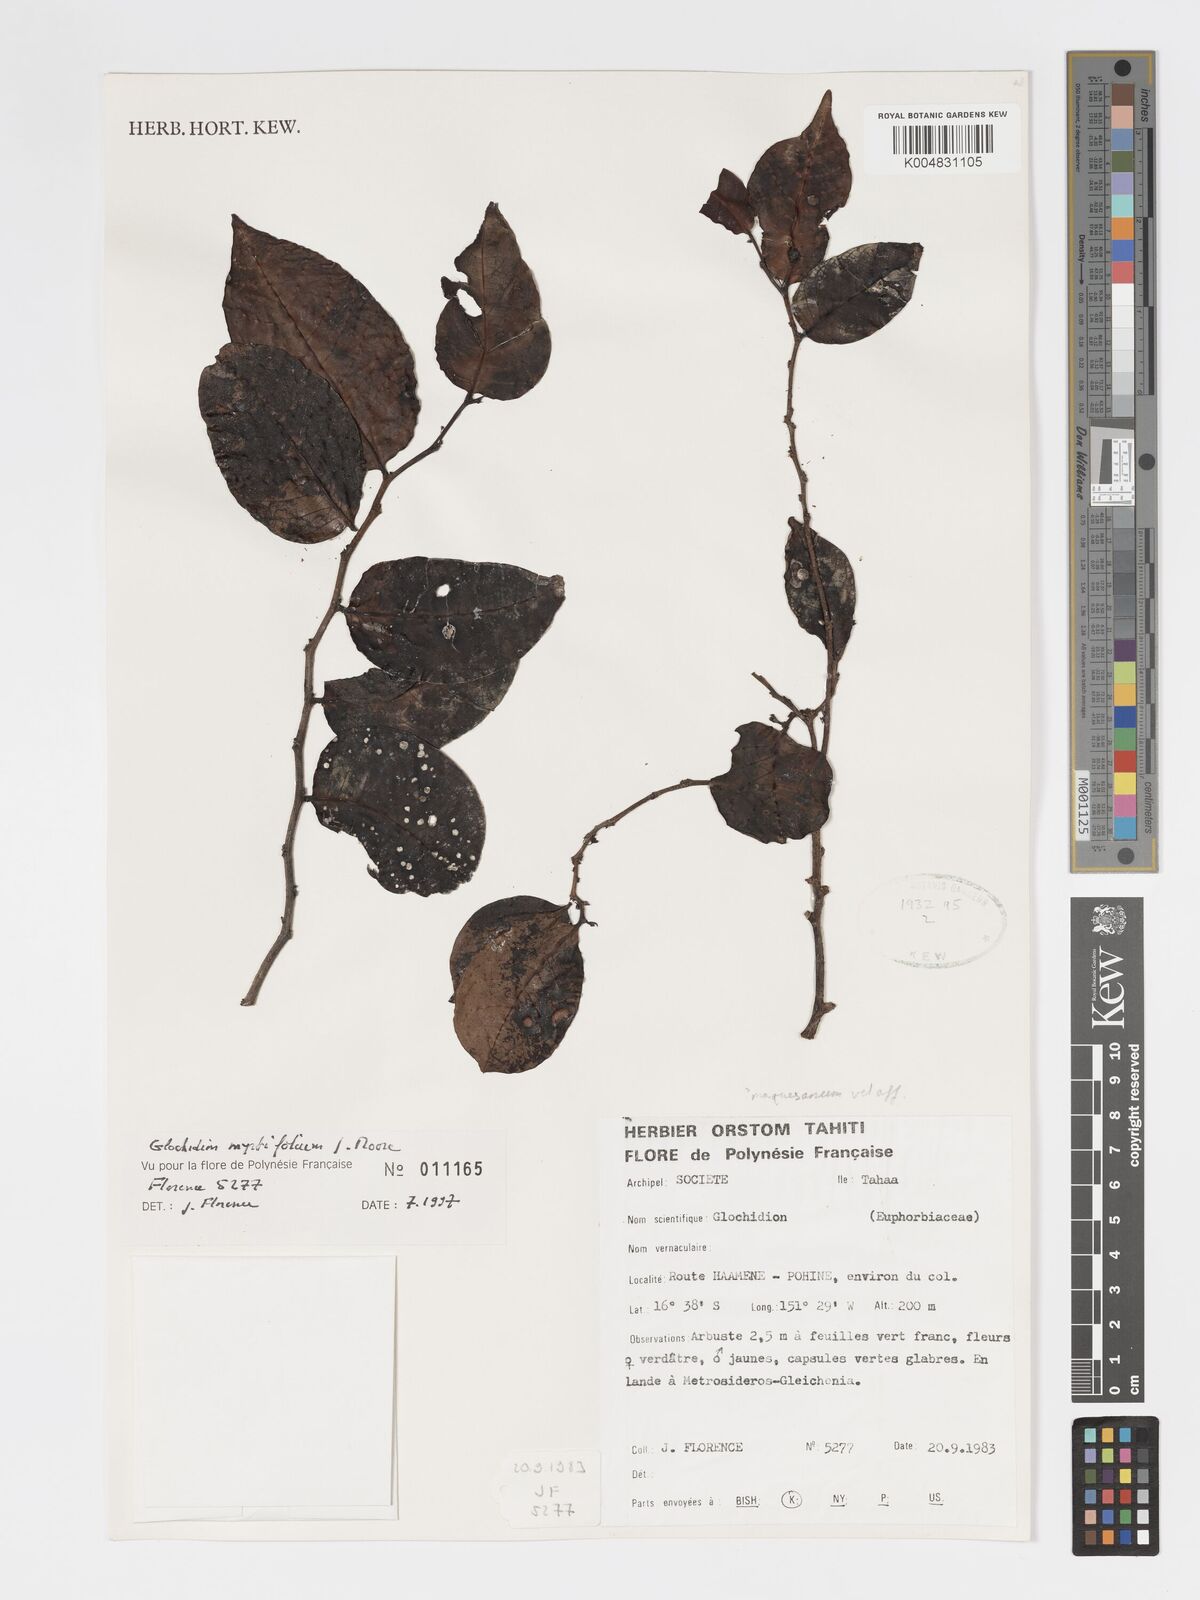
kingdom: Plantae
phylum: Tracheophyta
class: Magnoliopsida
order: Malpighiales
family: Phyllanthaceae
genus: Glochidion
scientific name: Glochidion myrtifolium
